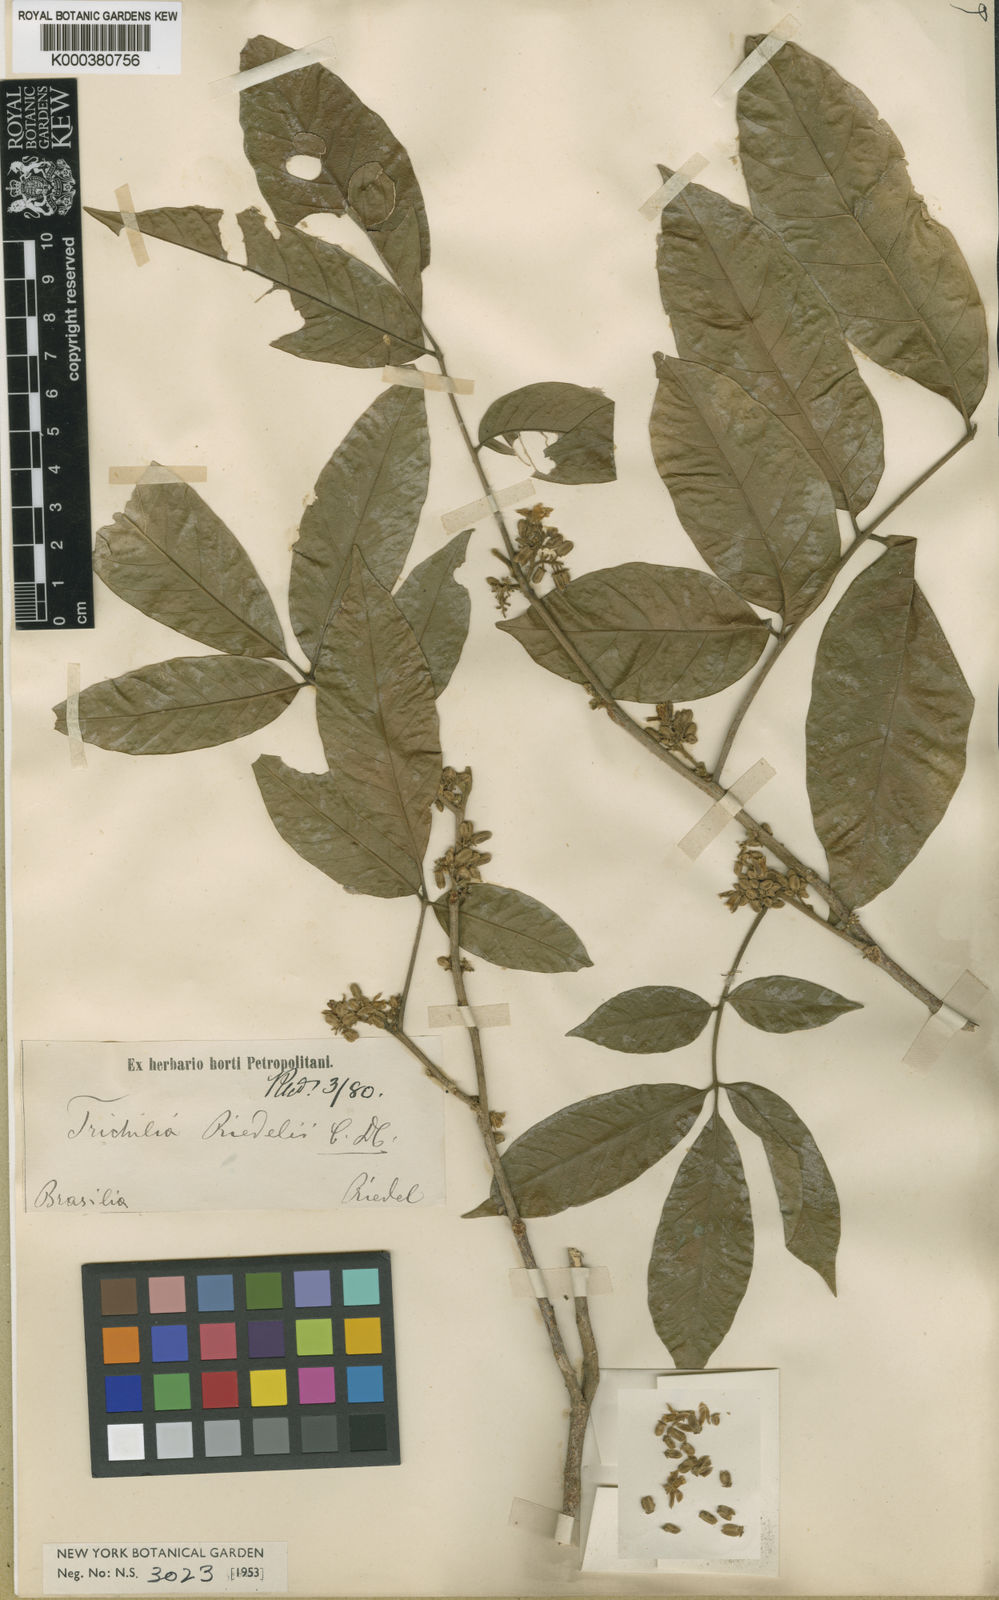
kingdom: Plantae
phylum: Tracheophyta
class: Magnoliopsida
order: Sapindales
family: Meliaceae
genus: Trichilia
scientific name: Trichilia pallida
